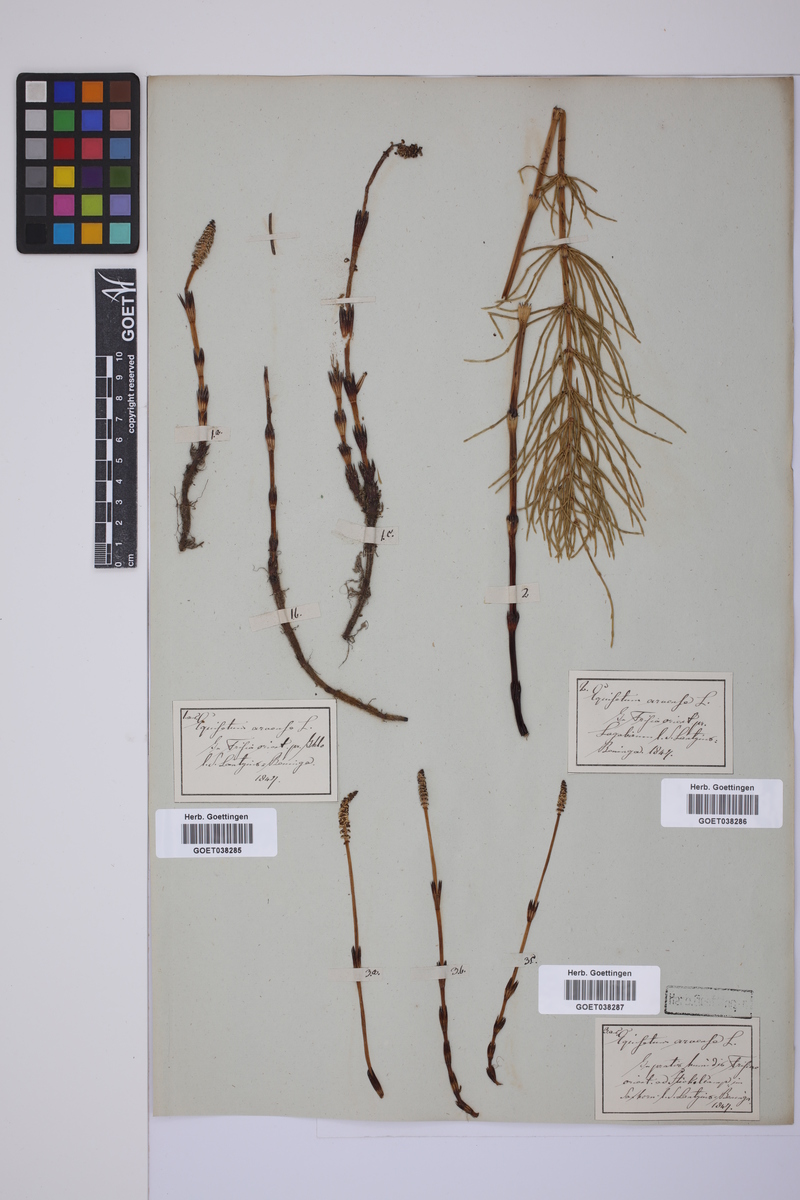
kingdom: Plantae
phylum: Tracheophyta
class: Polypodiopsida
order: Equisetales
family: Equisetaceae
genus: Equisetum
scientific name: Equisetum arvense
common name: Field horsetail
